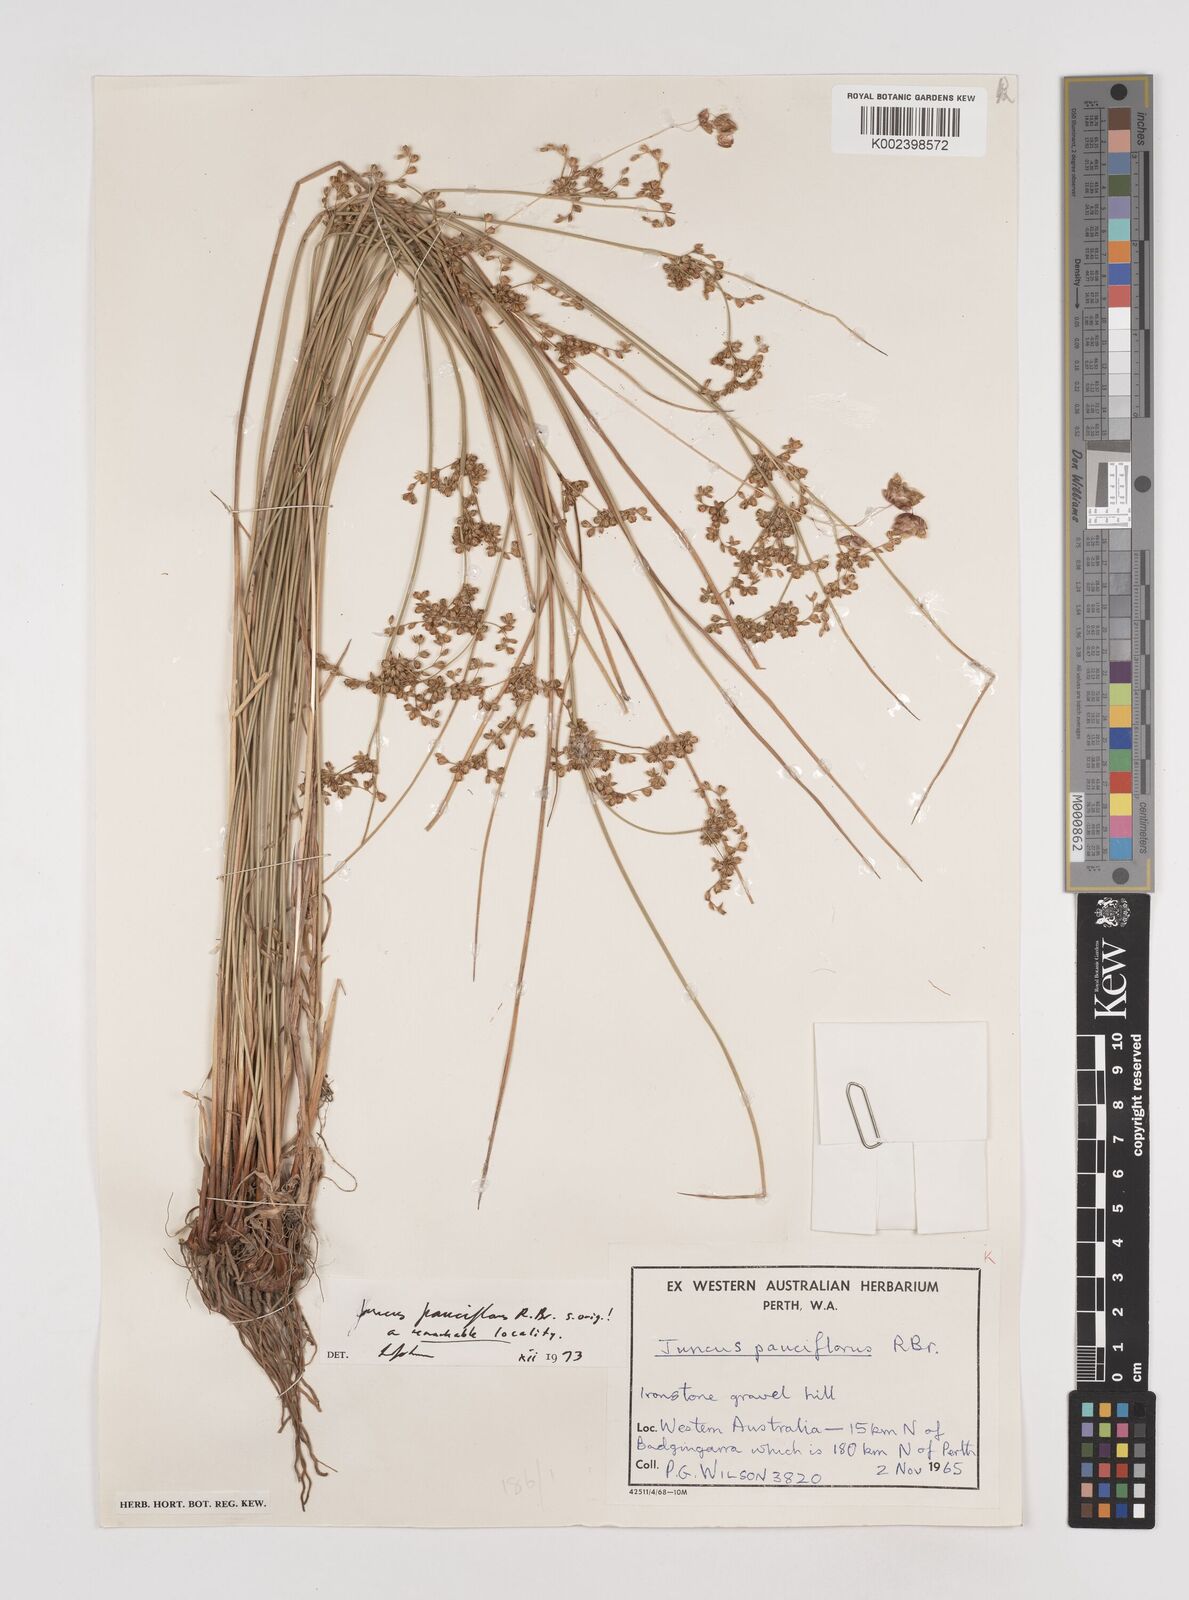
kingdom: Plantae
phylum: Tracheophyta
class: Liliopsida
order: Poales
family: Juncaceae
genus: Juncus
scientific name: Juncus pauciflorus
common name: Loose-flowered rush
